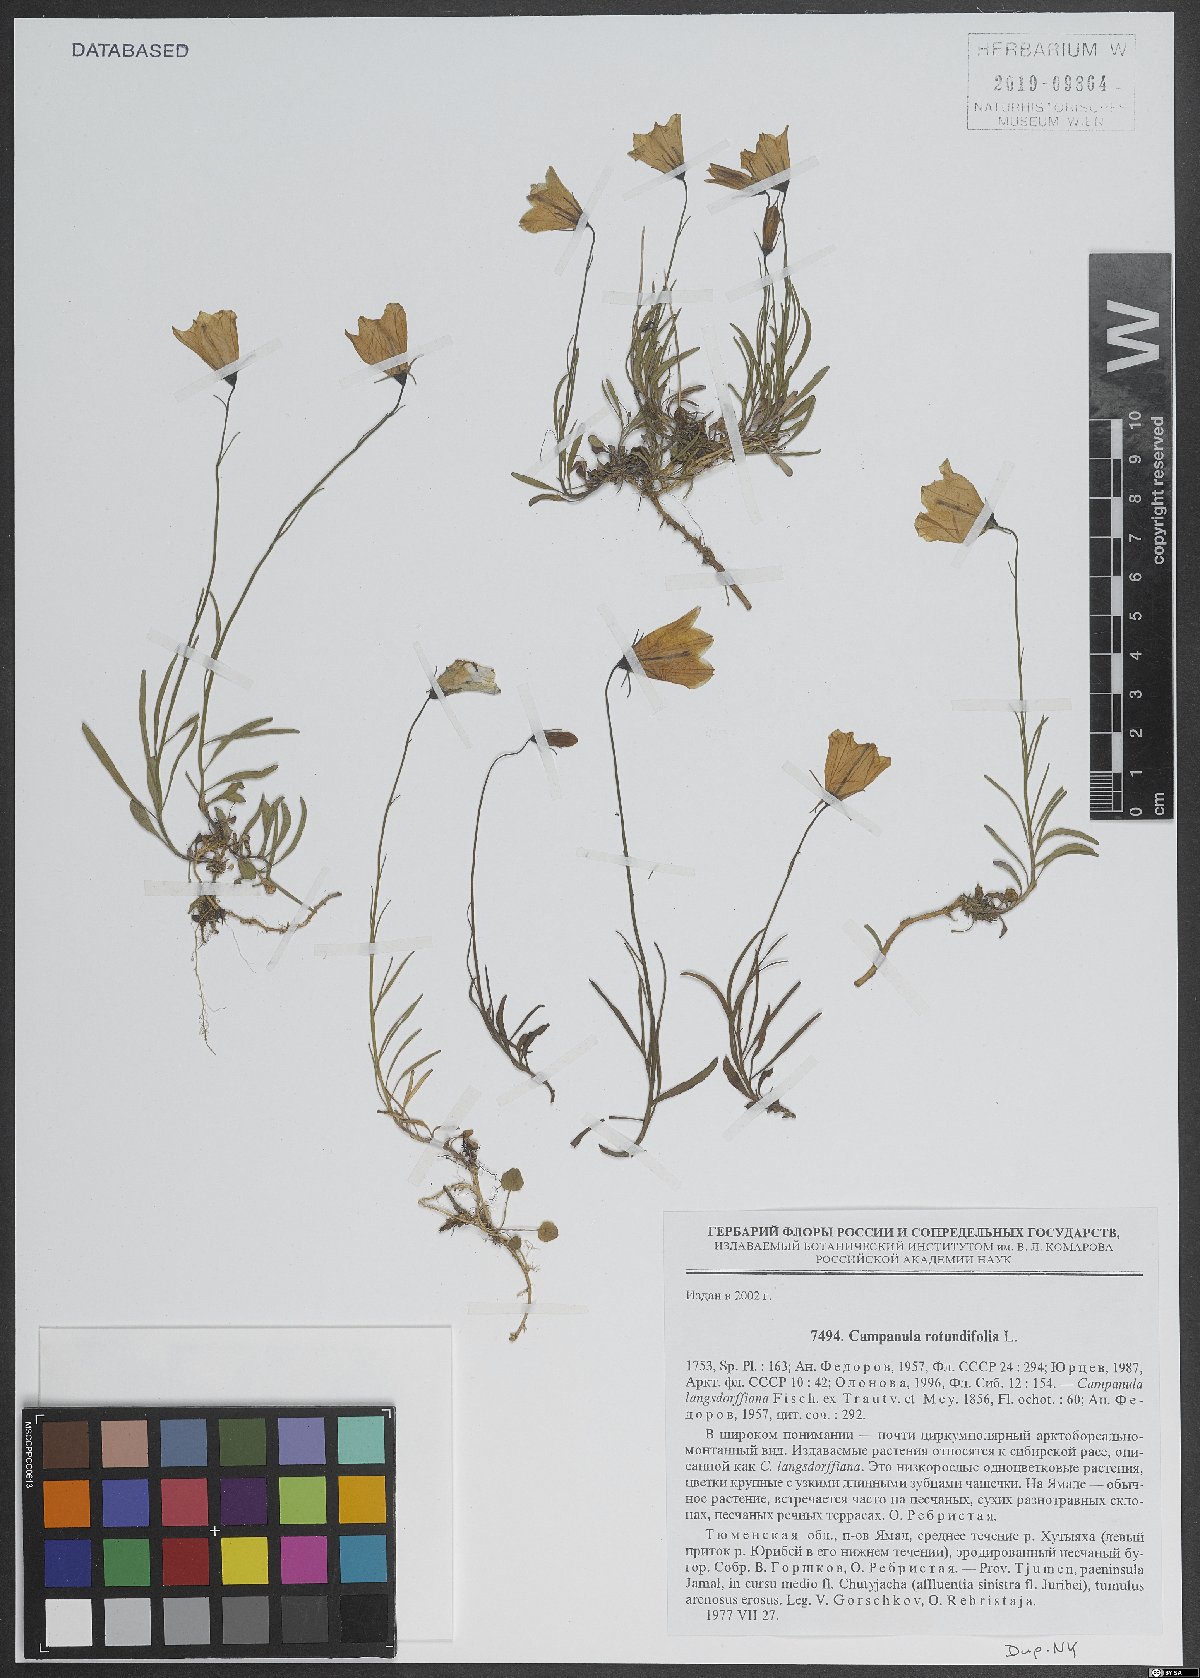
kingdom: Plantae
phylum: Tracheophyta
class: Magnoliopsida
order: Asterales
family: Campanulaceae
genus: Campanula
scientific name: Campanula rotundifolia
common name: Harebell
